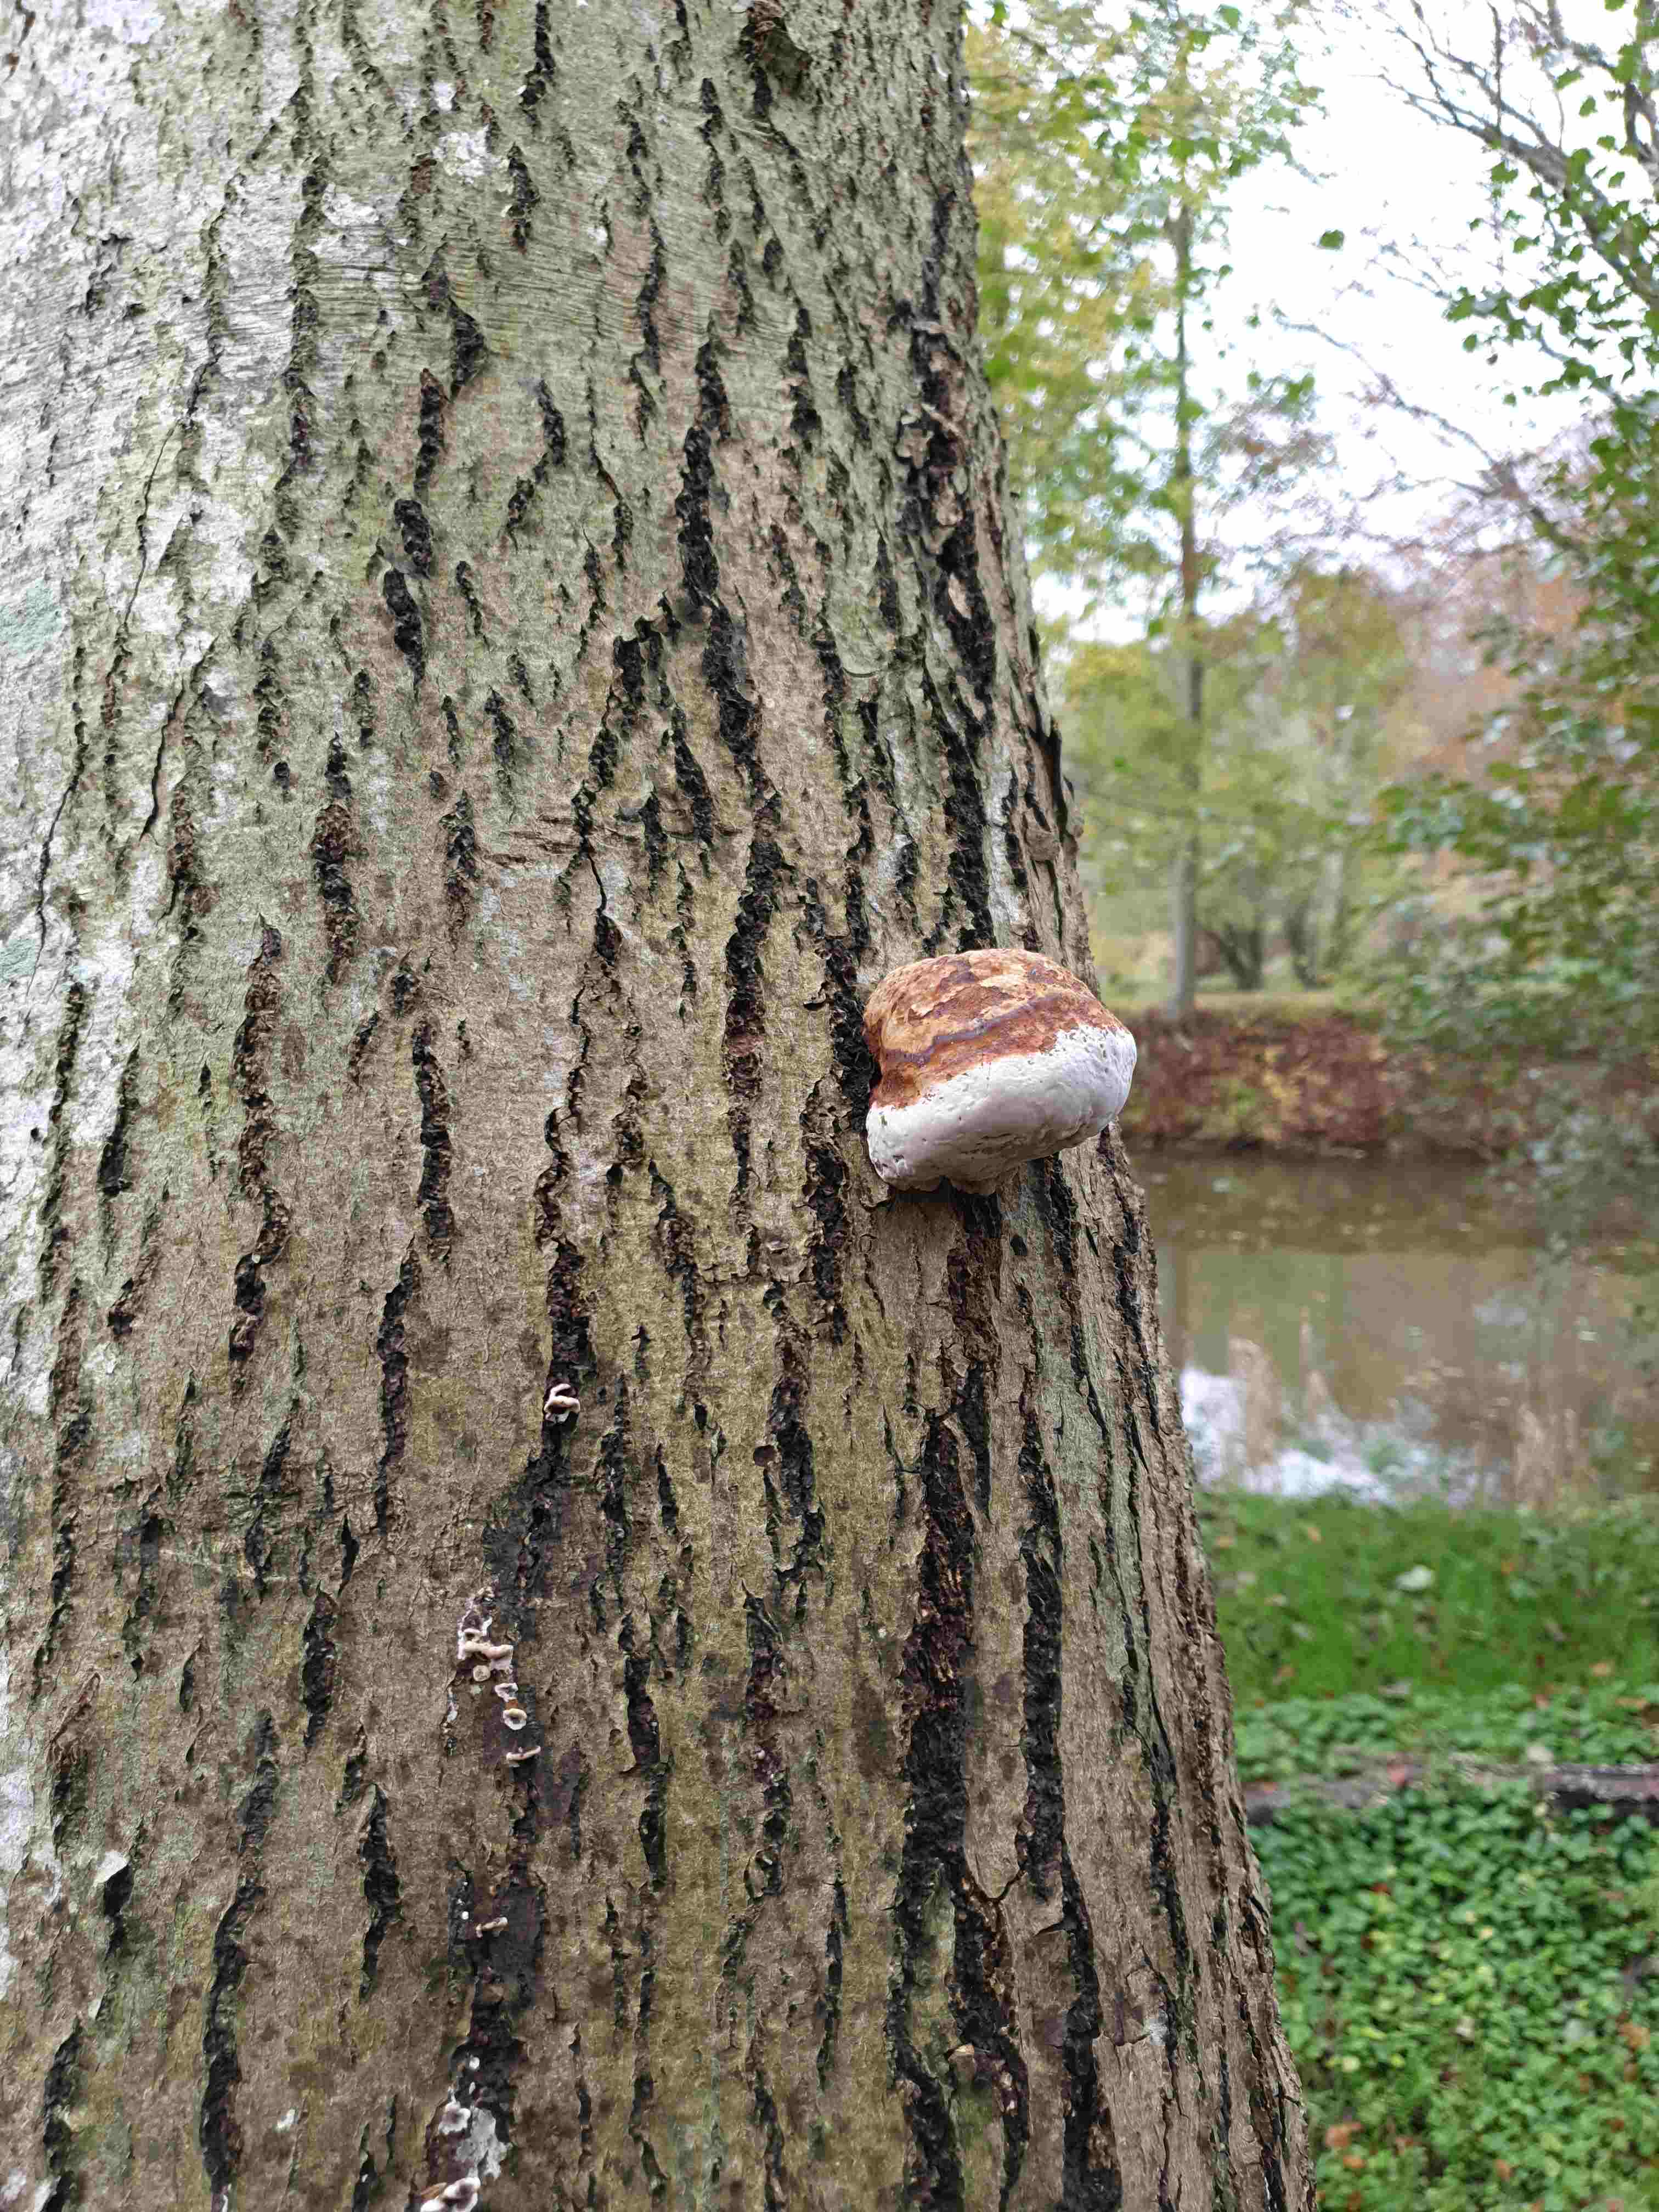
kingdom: Fungi
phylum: Basidiomycota
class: Agaricomycetes
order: Polyporales
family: Polyporaceae
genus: Fomes
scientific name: Fomes fomentarius
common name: tøndersvamp
